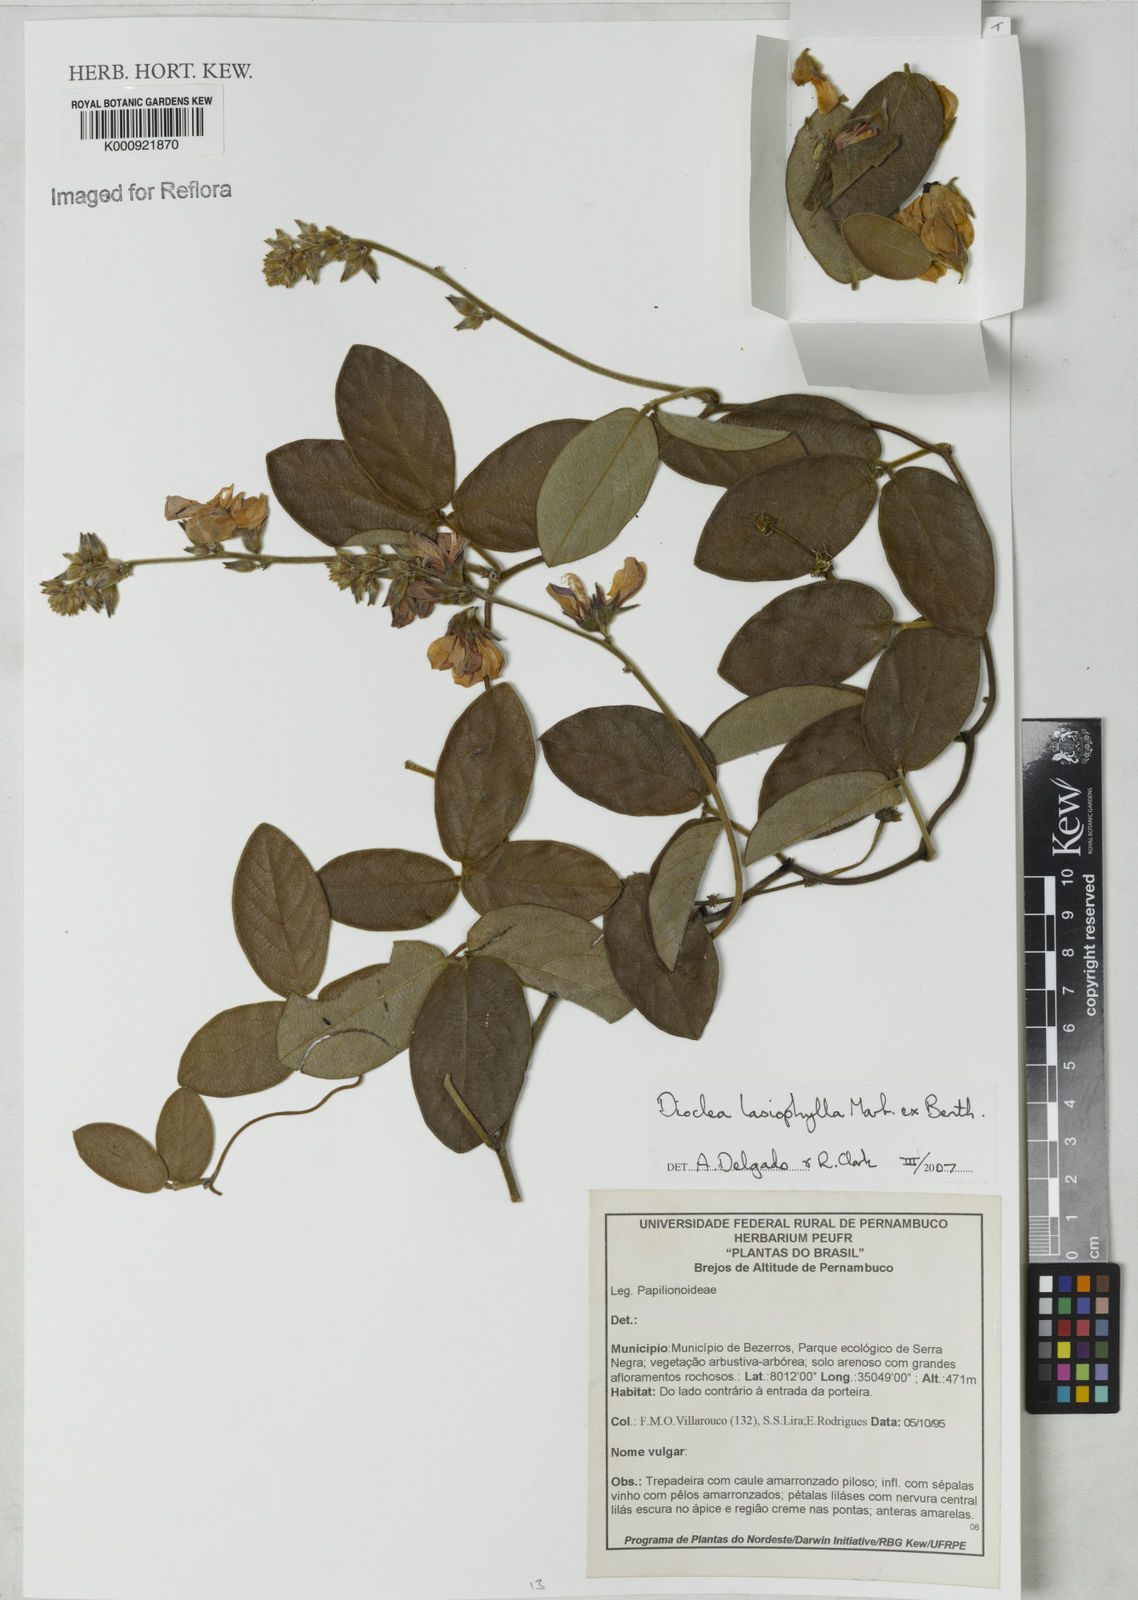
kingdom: Plantae
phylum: Tracheophyta
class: Magnoliopsida
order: Fabales
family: Fabaceae
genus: Dioclea
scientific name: Dioclea lasiophylla
